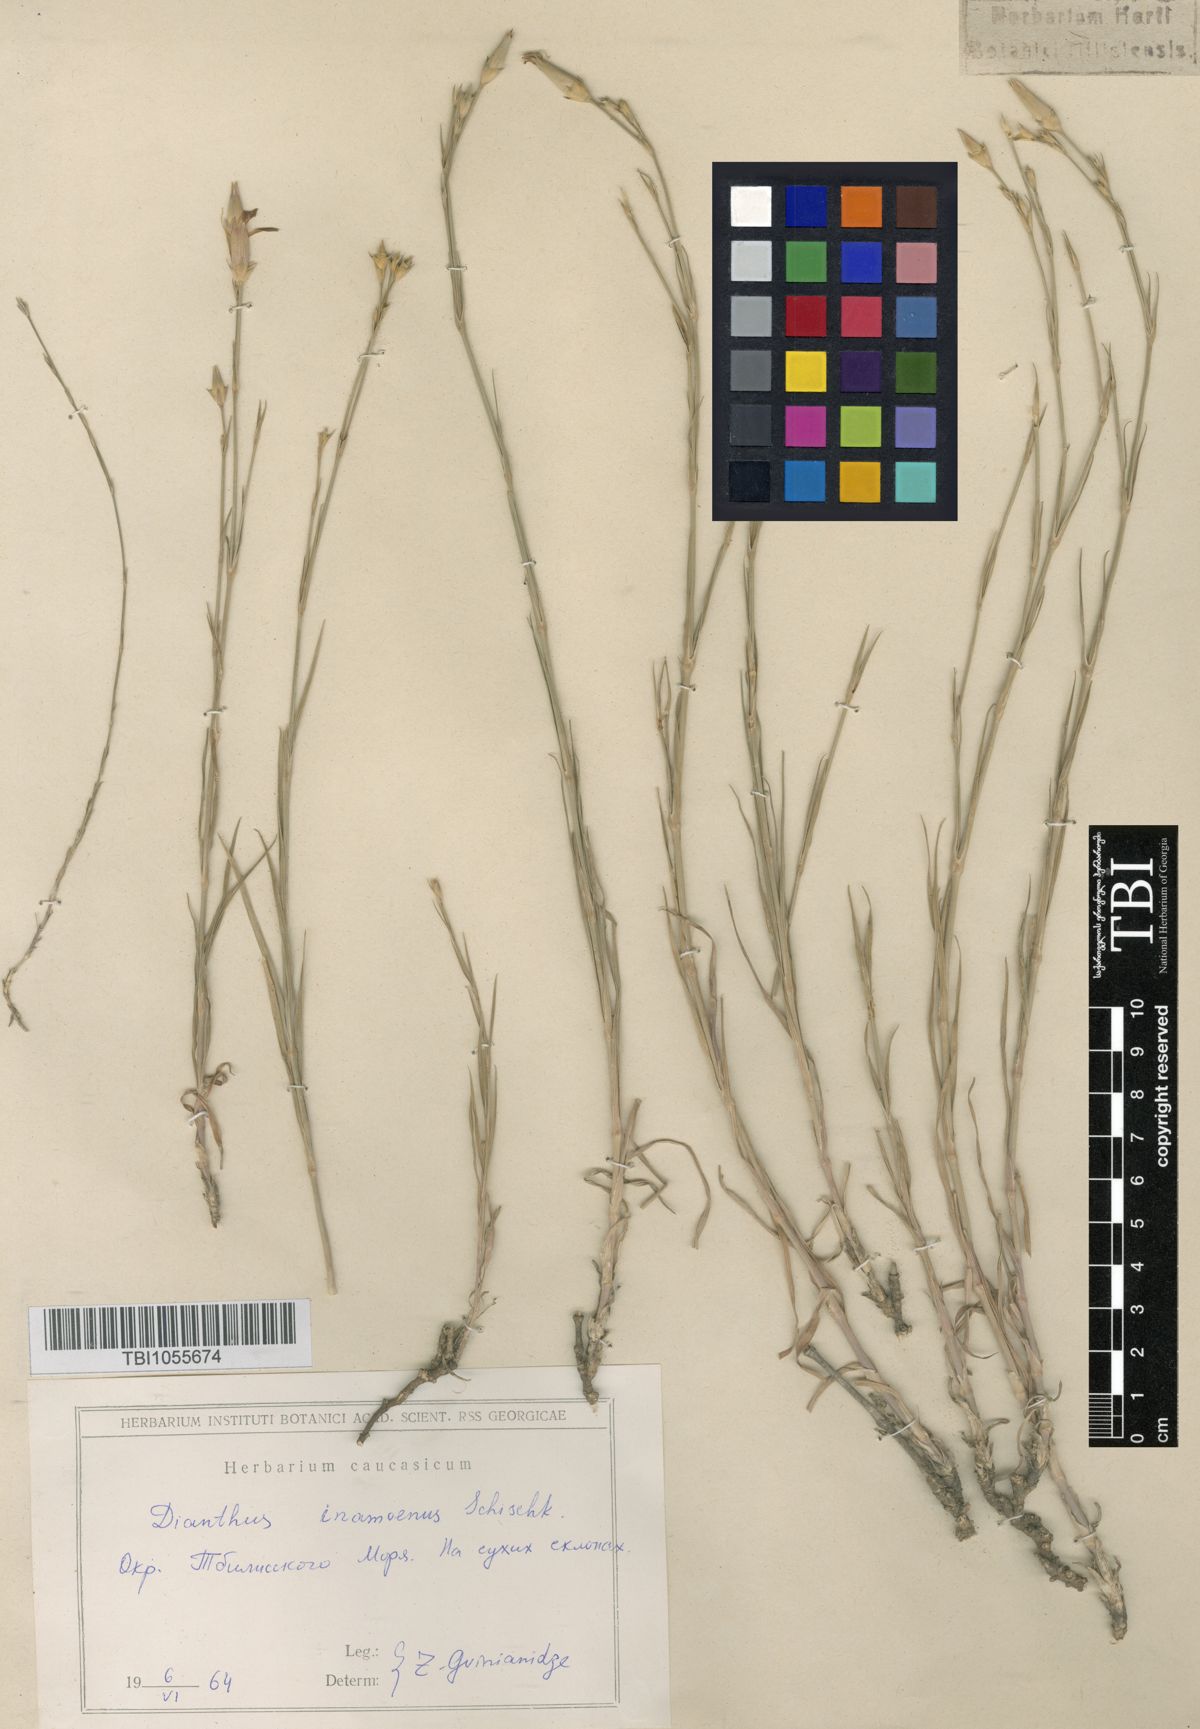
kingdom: Plantae
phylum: Tracheophyta
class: Magnoliopsida
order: Caryophyllales
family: Caryophyllaceae
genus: Dianthus
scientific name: Dianthus inamoenus
